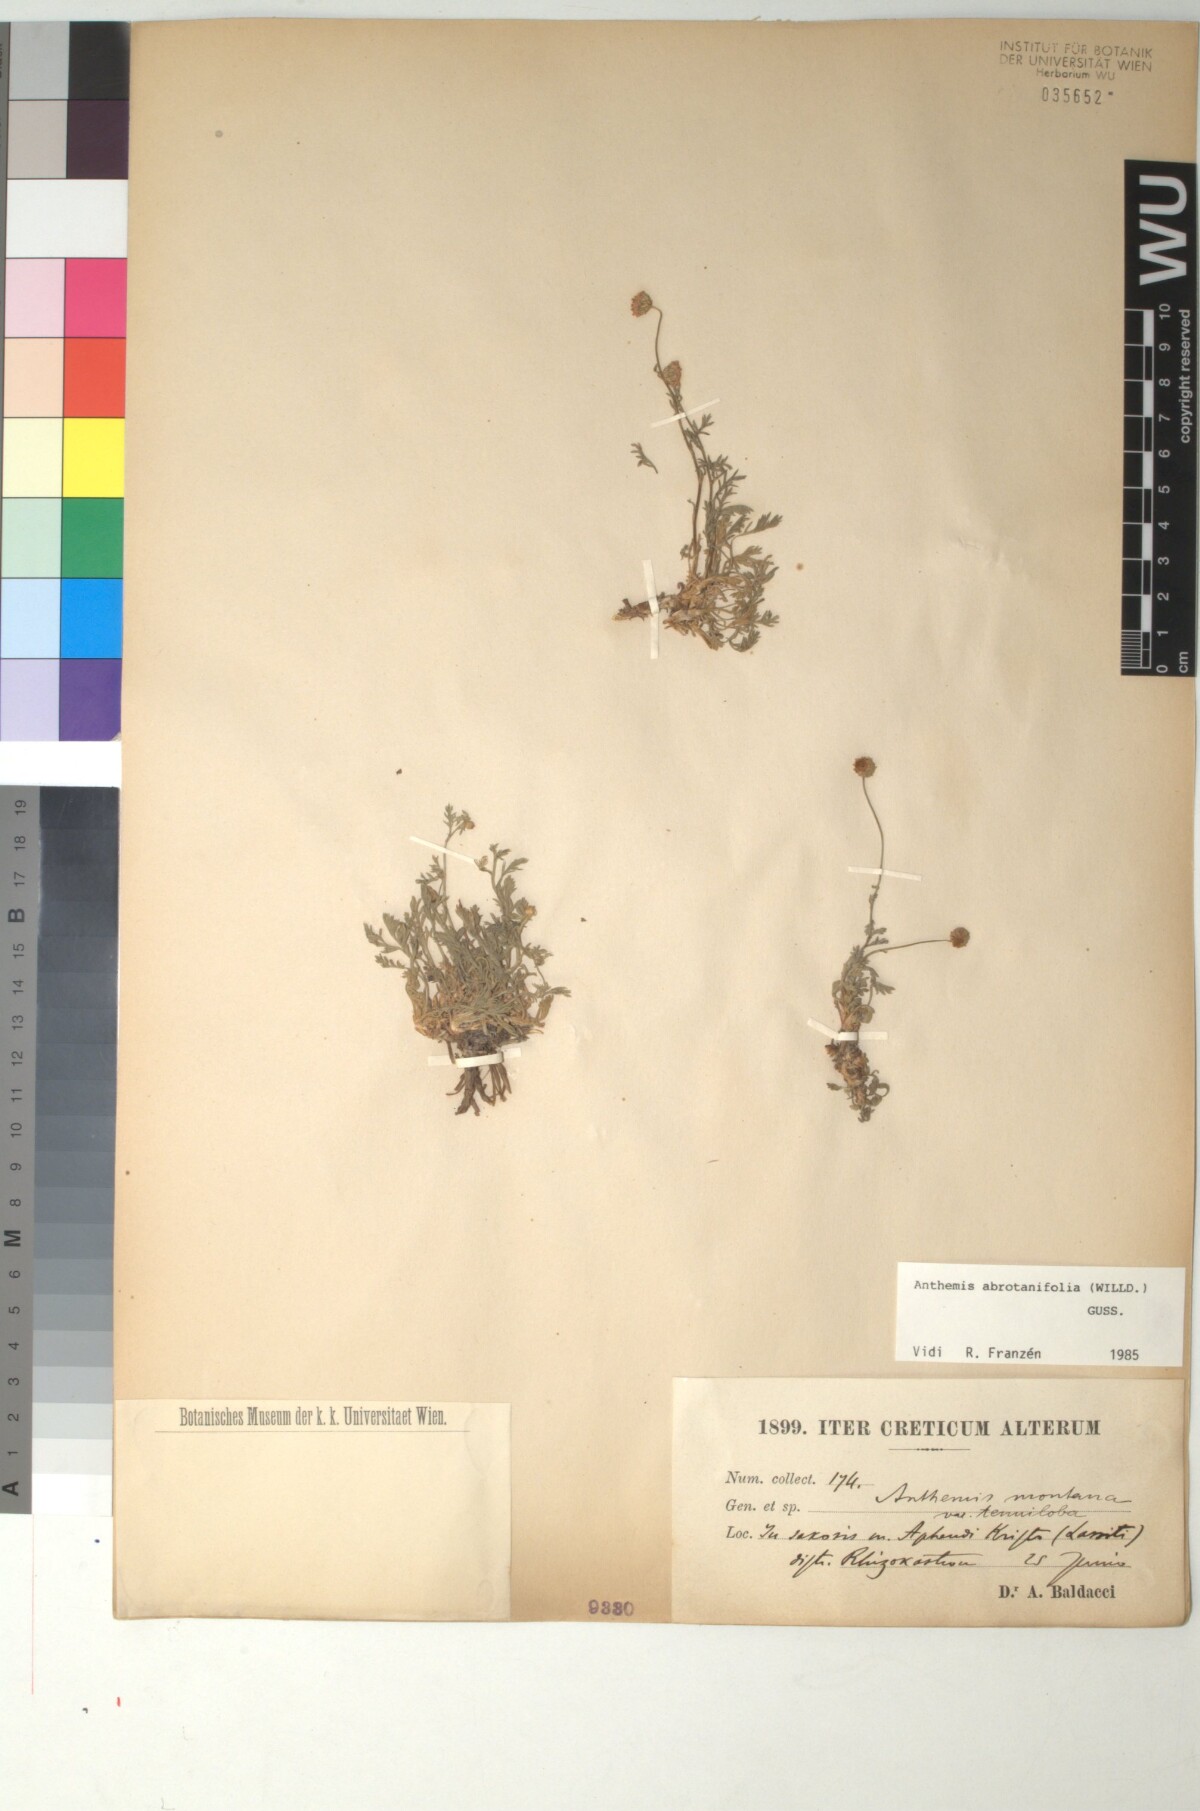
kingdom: Plantae
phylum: Tracheophyta
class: Magnoliopsida
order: Asterales
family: Asteraceae
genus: Anthemis
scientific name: Anthemis abrotanifolia
